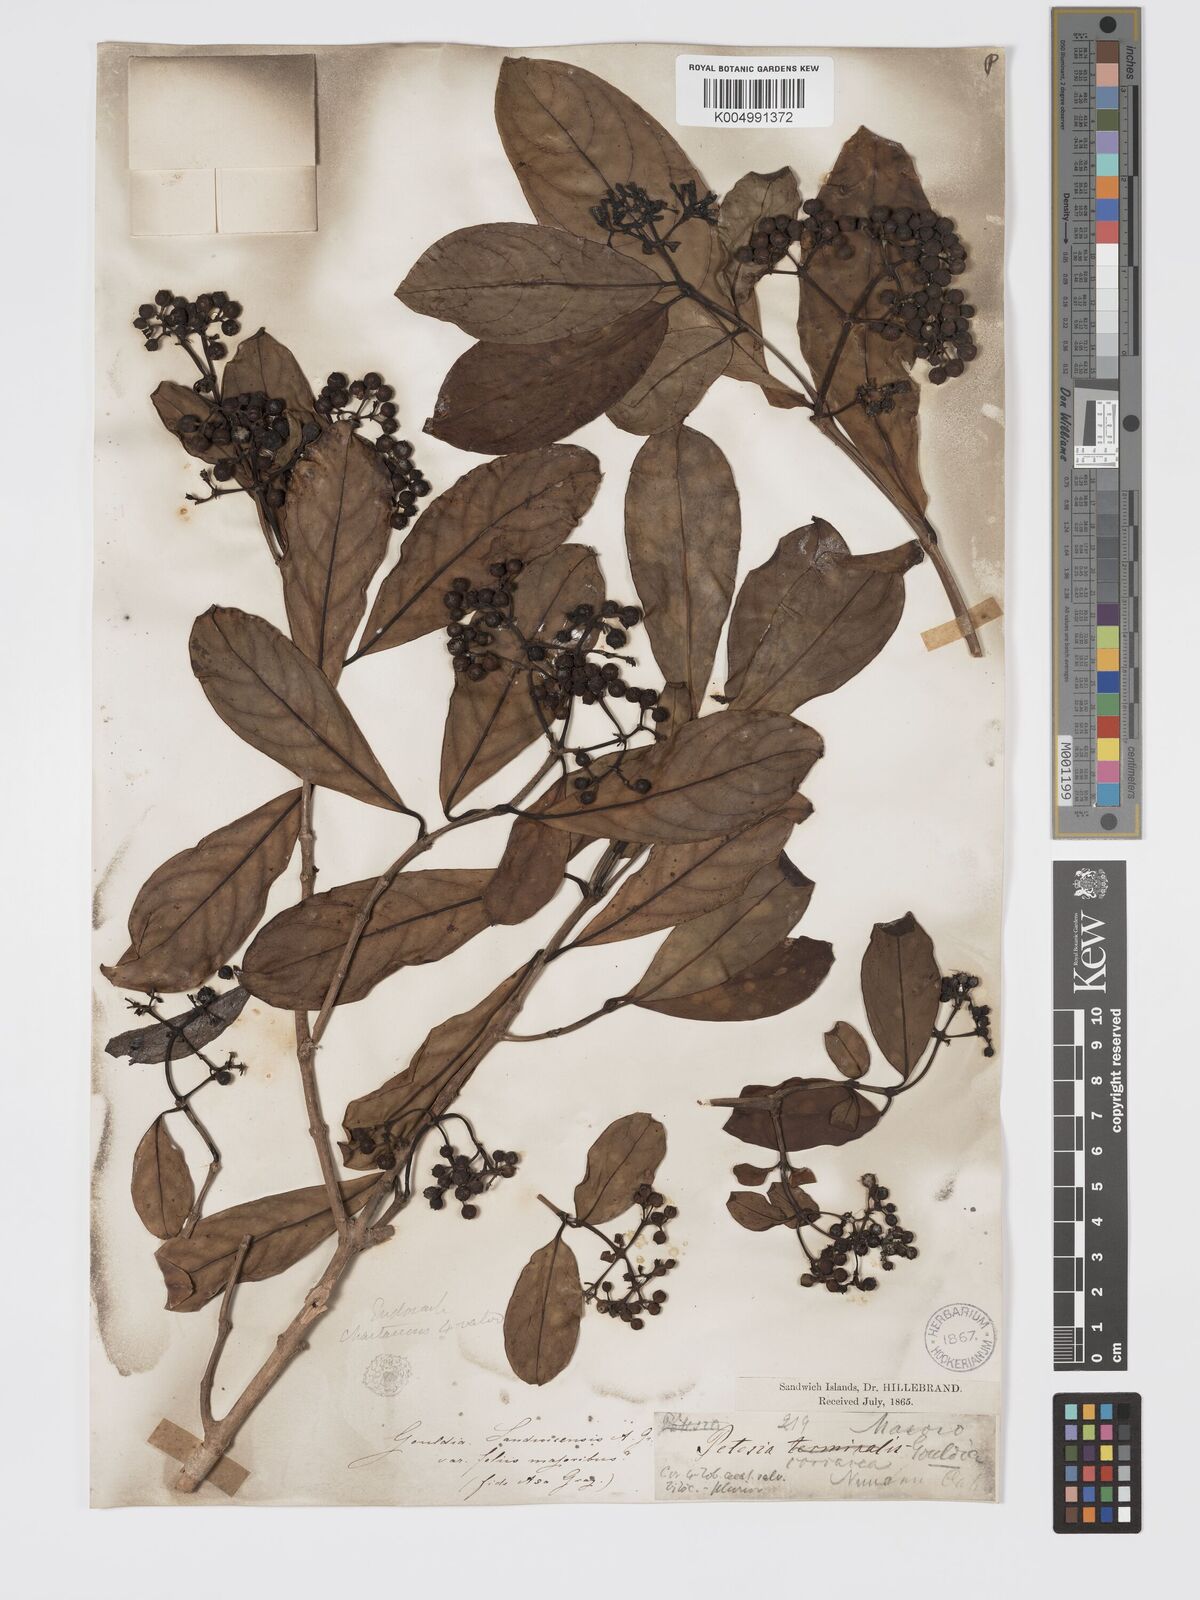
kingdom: Plantae
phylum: Tracheophyta
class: Magnoliopsida
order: Gentianales
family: Rubiaceae
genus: Kadua
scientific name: Kadua affinis
